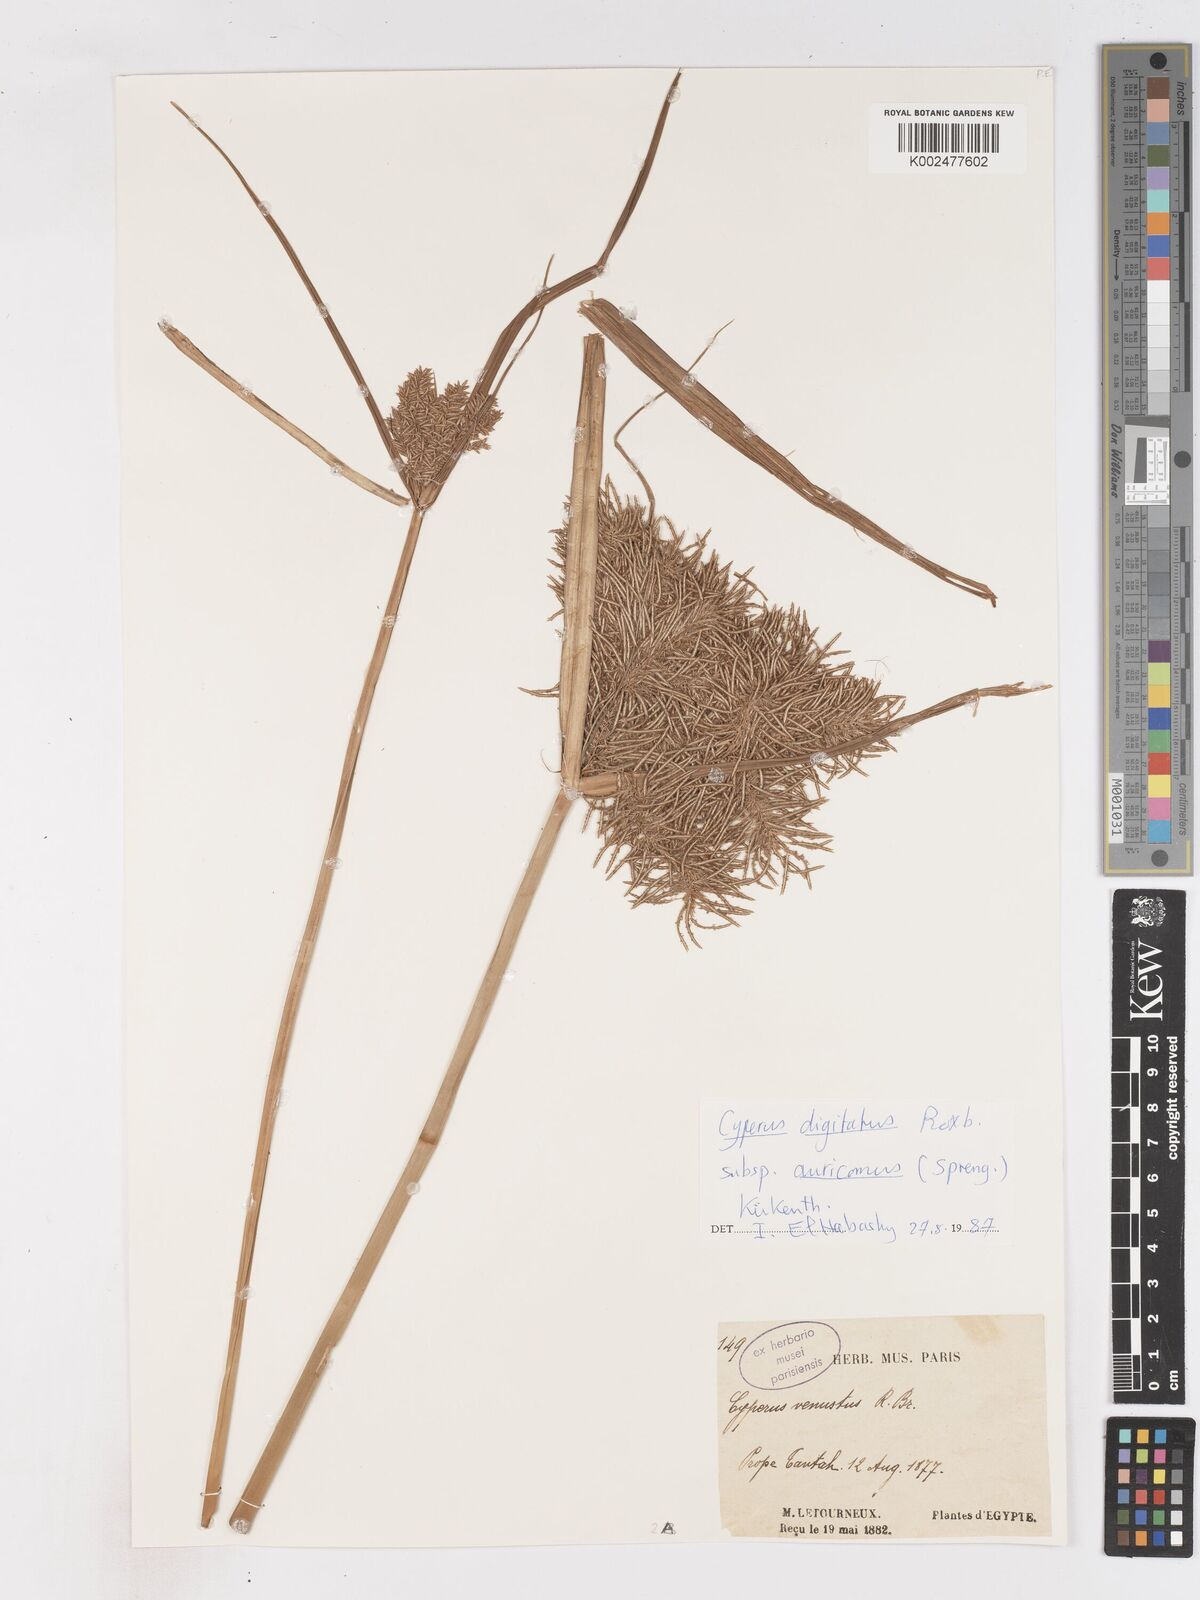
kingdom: Plantae
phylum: Tracheophyta
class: Liliopsida
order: Poales
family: Cyperaceae
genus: Cyperus
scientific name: Cyperus digitatus
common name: Finger flatsedge
